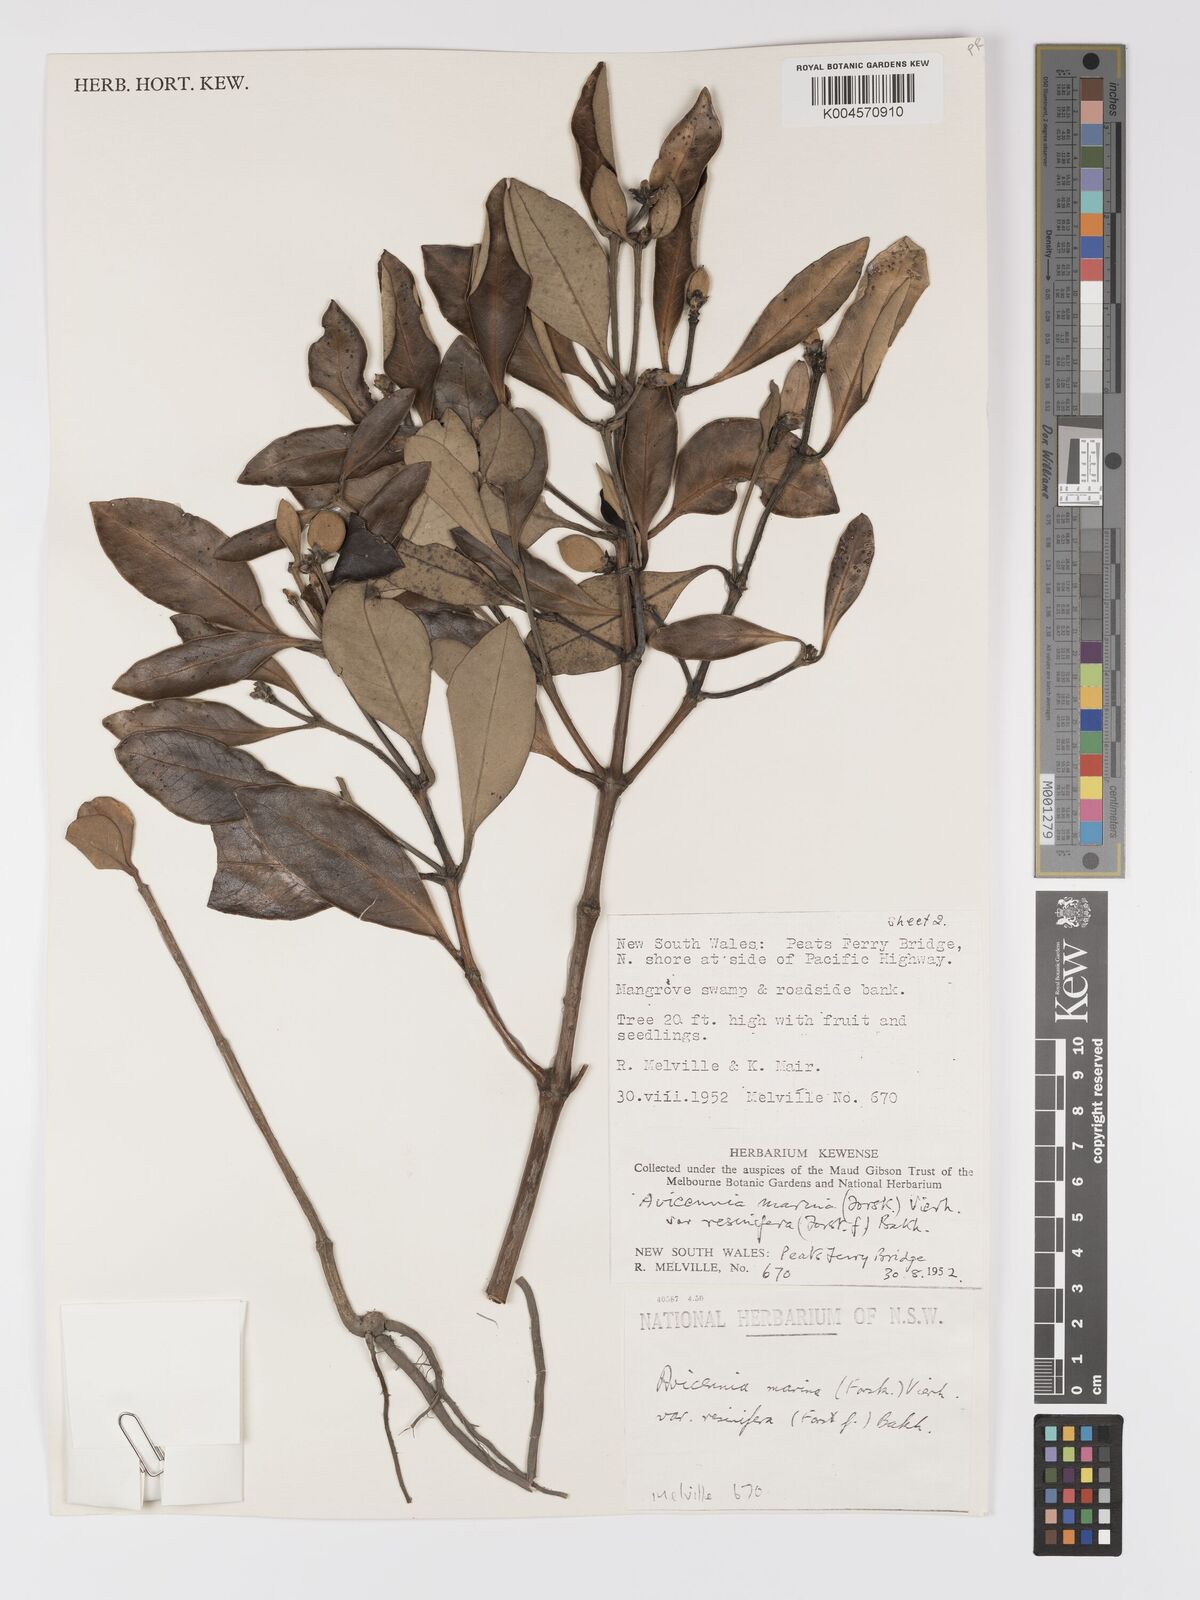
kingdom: Plantae
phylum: Tracheophyta
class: Magnoliopsida
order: Lamiales
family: Acanthaceae
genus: Avicennia
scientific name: Avicennia marina
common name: Gray mangrove
